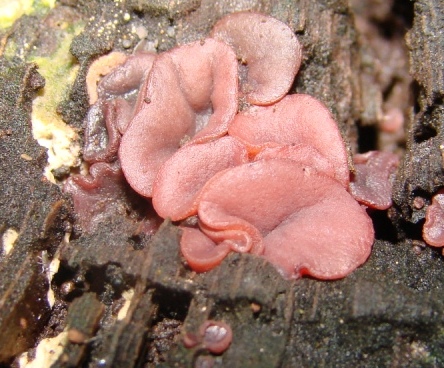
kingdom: Fungi
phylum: Ascomycota
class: Leotiomycetes
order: Helotiales
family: Gelatinodiscaceae
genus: Ascocoryne
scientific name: Ascocoryne cylichnium
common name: stor sejskive
